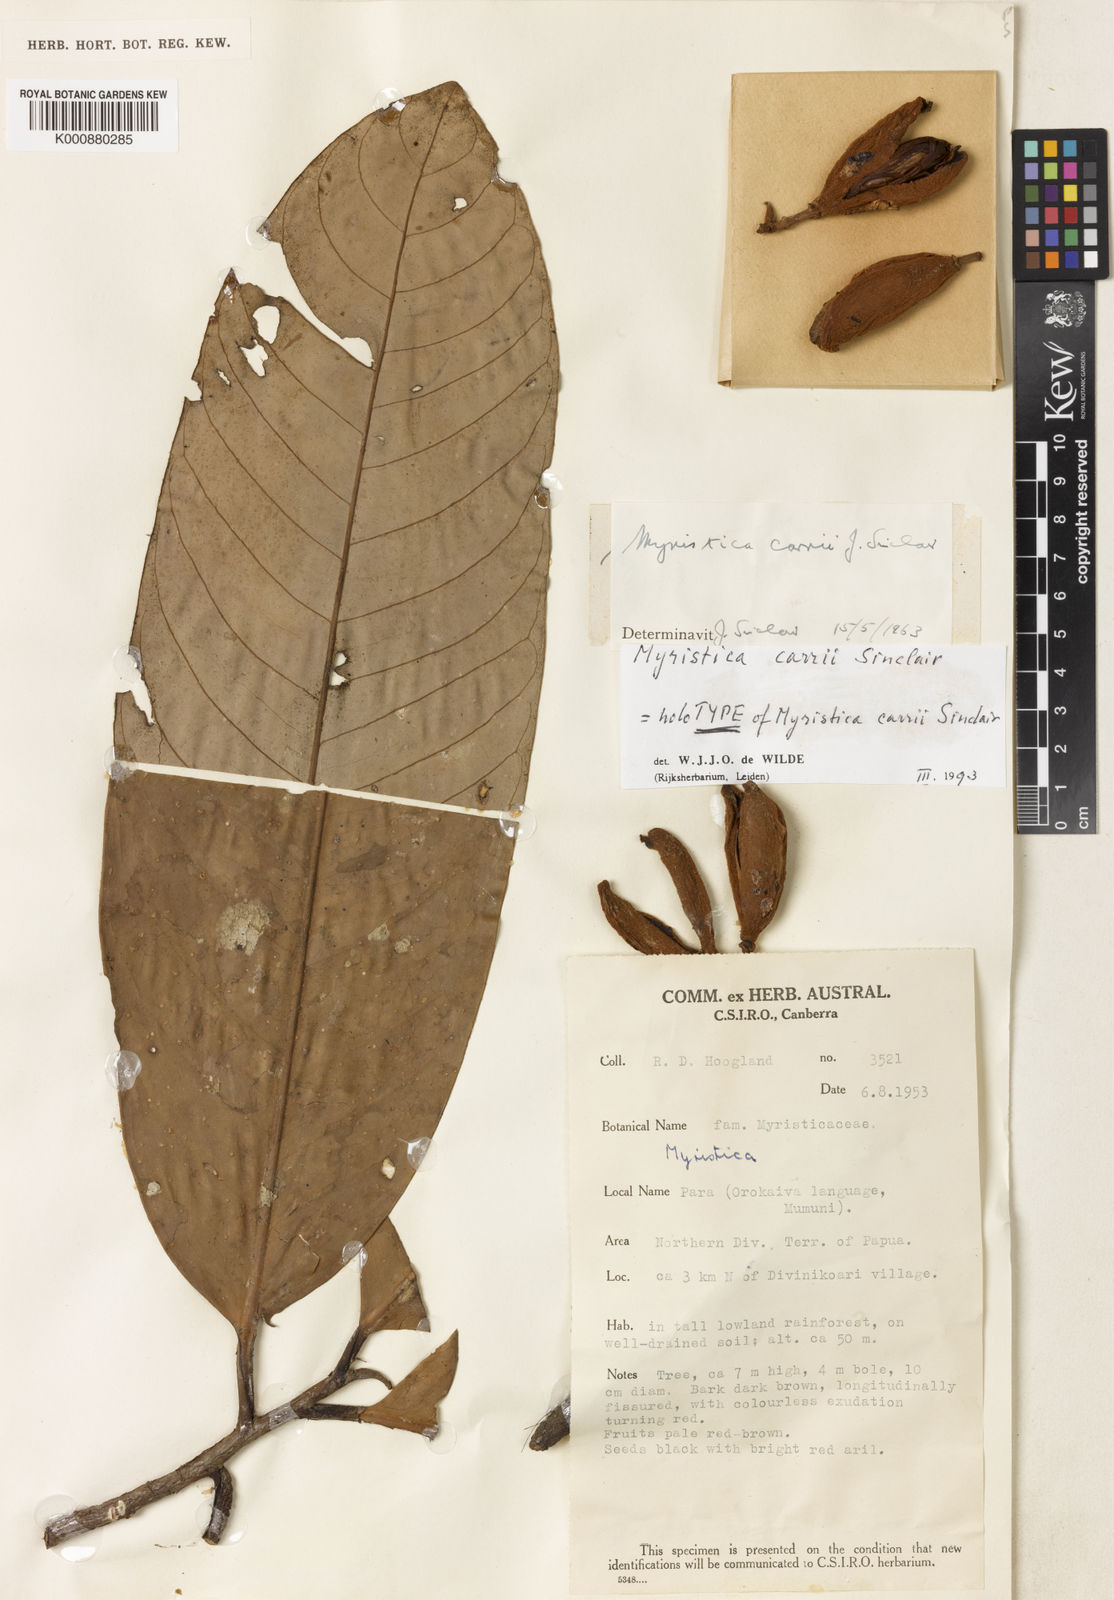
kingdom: Plantae
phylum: Tracheophyta
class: Magnoliopsida
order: Magnoliales
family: Myristicaceae
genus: Myristica
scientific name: Myristica carrii
